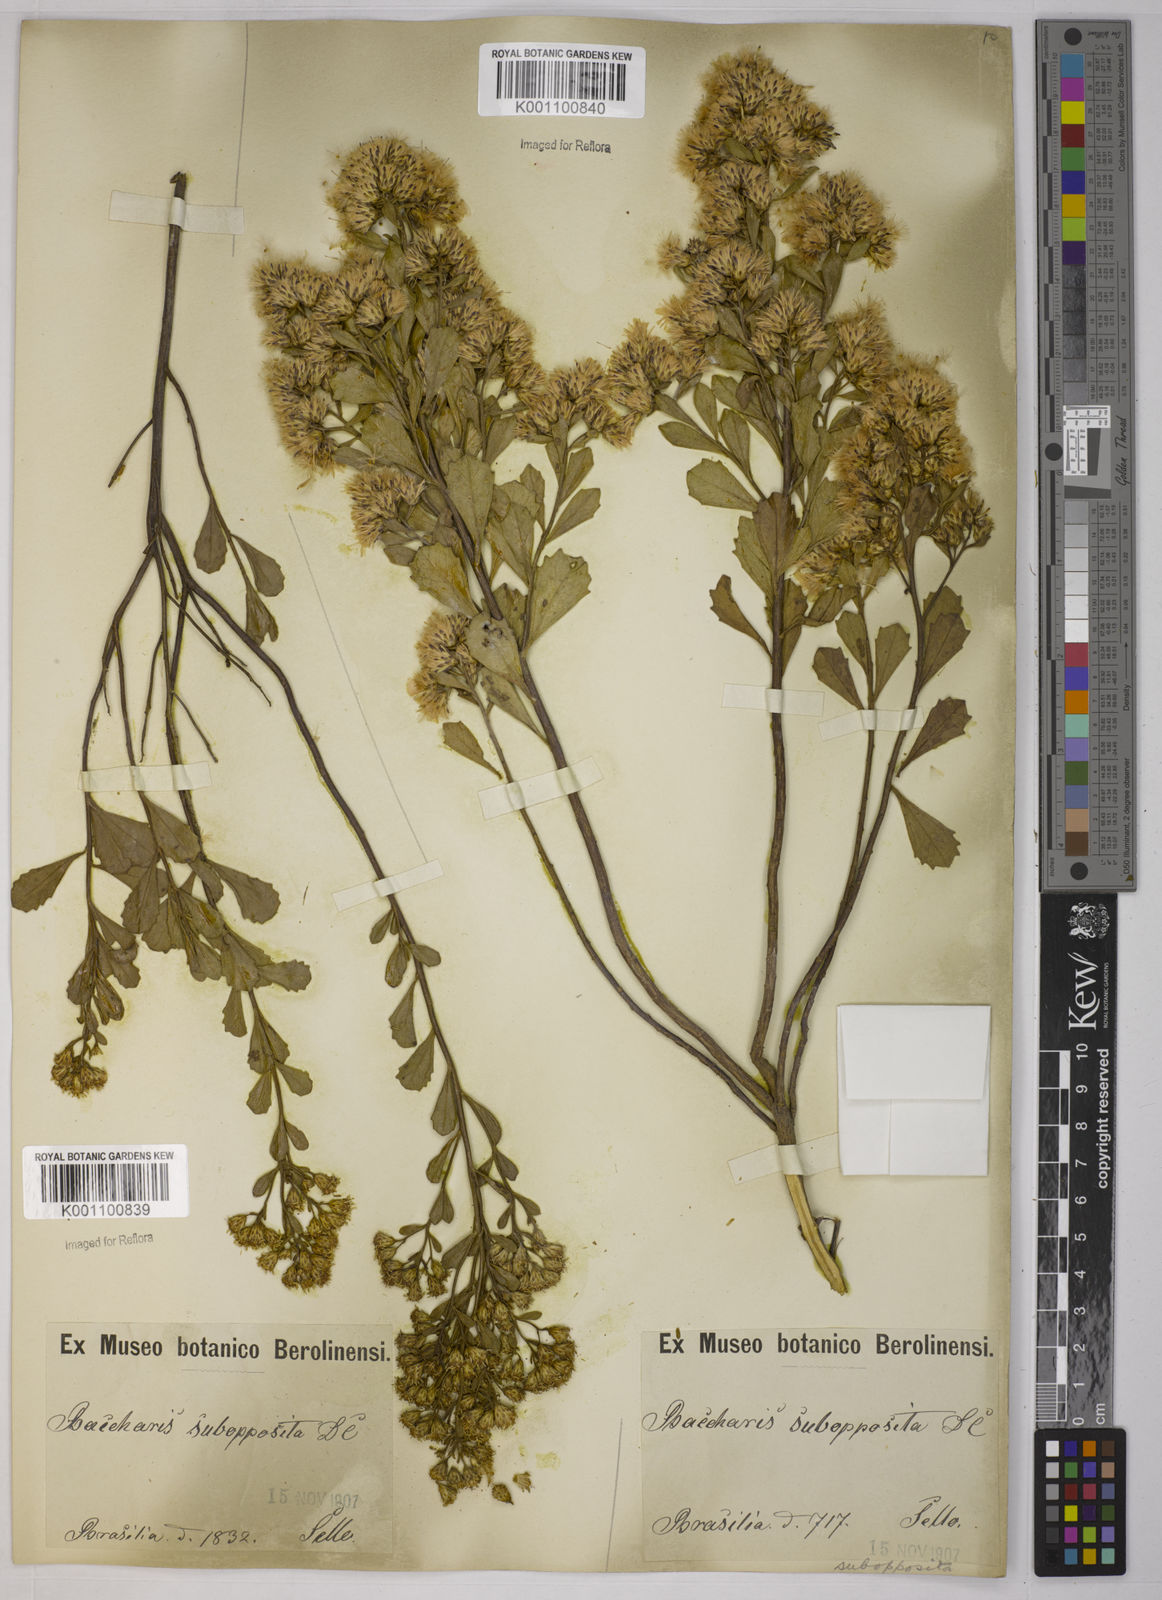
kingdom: Plantae
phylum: Tracheophyta
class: Magnoliopsida
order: Asterales
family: Asteraceae
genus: Baccharis
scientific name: Baccharis subopposita
